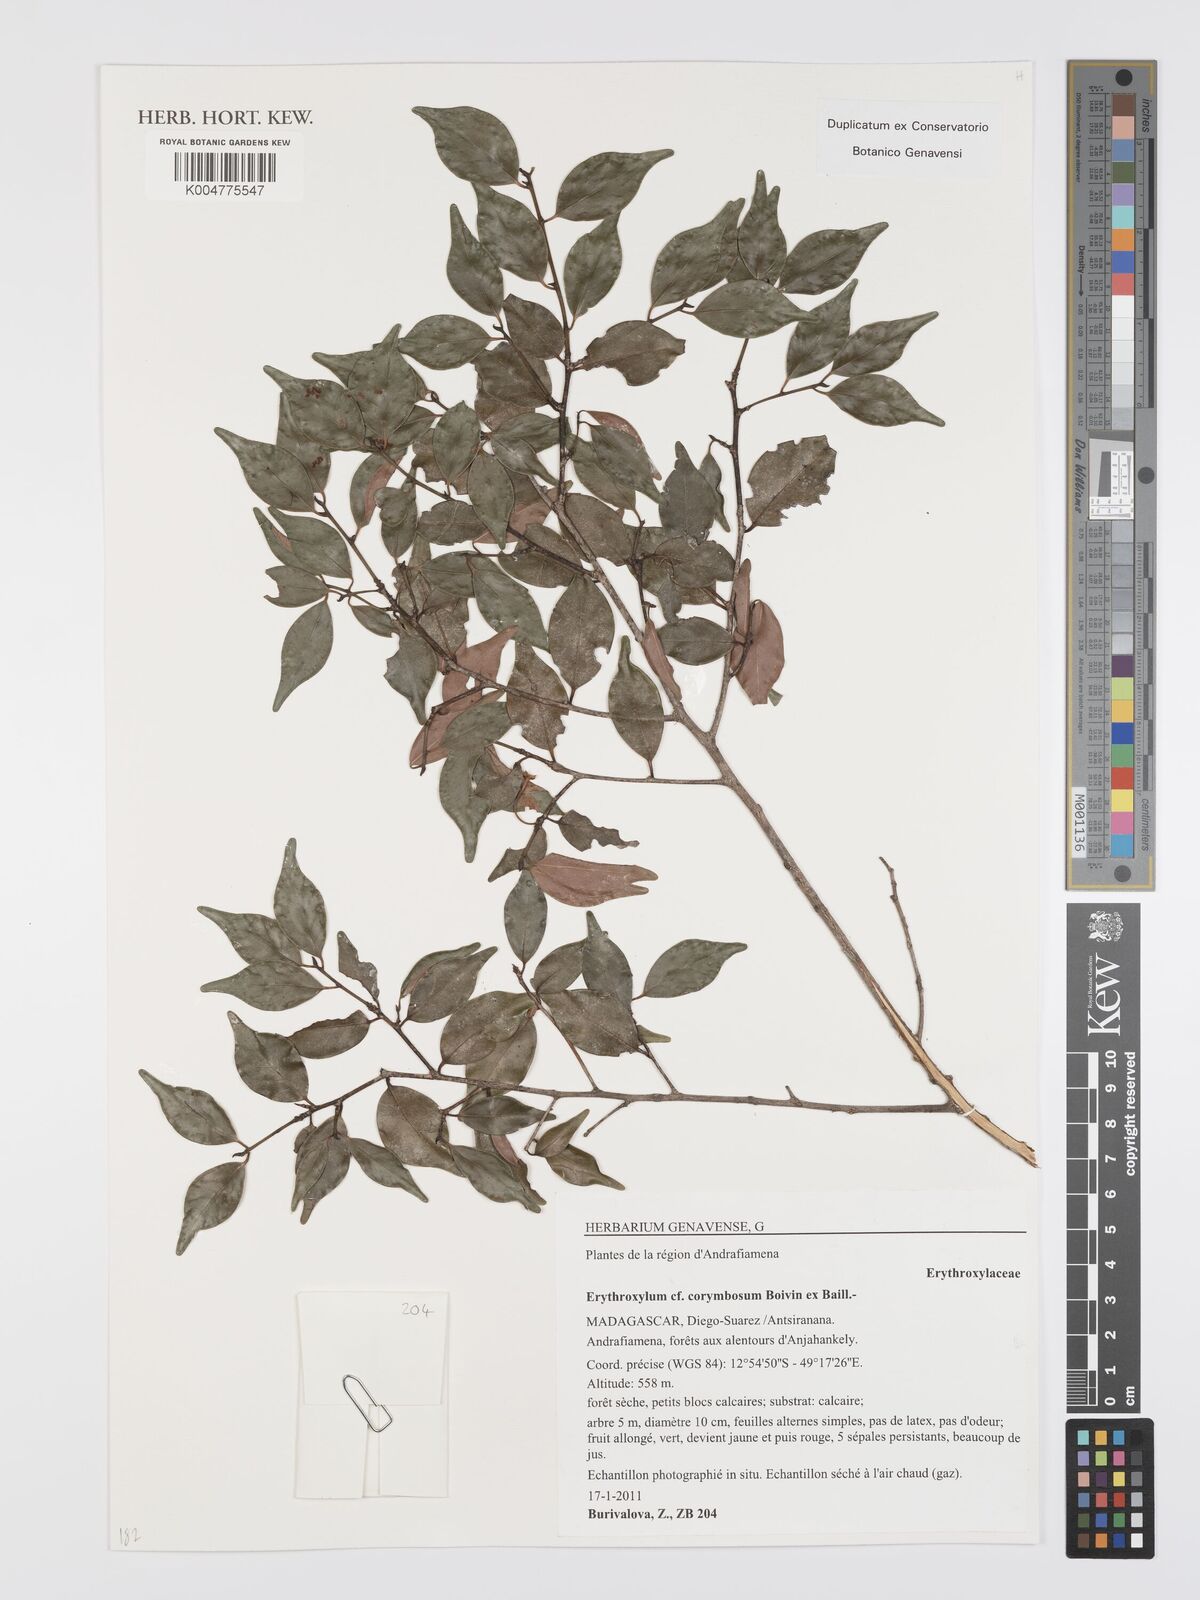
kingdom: Plantae
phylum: Tracheophyta
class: Magnoliopsida
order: Malpighiales
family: Erythroxylaceae
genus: Erythroxylum
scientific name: Erythroxylum corymbosum
